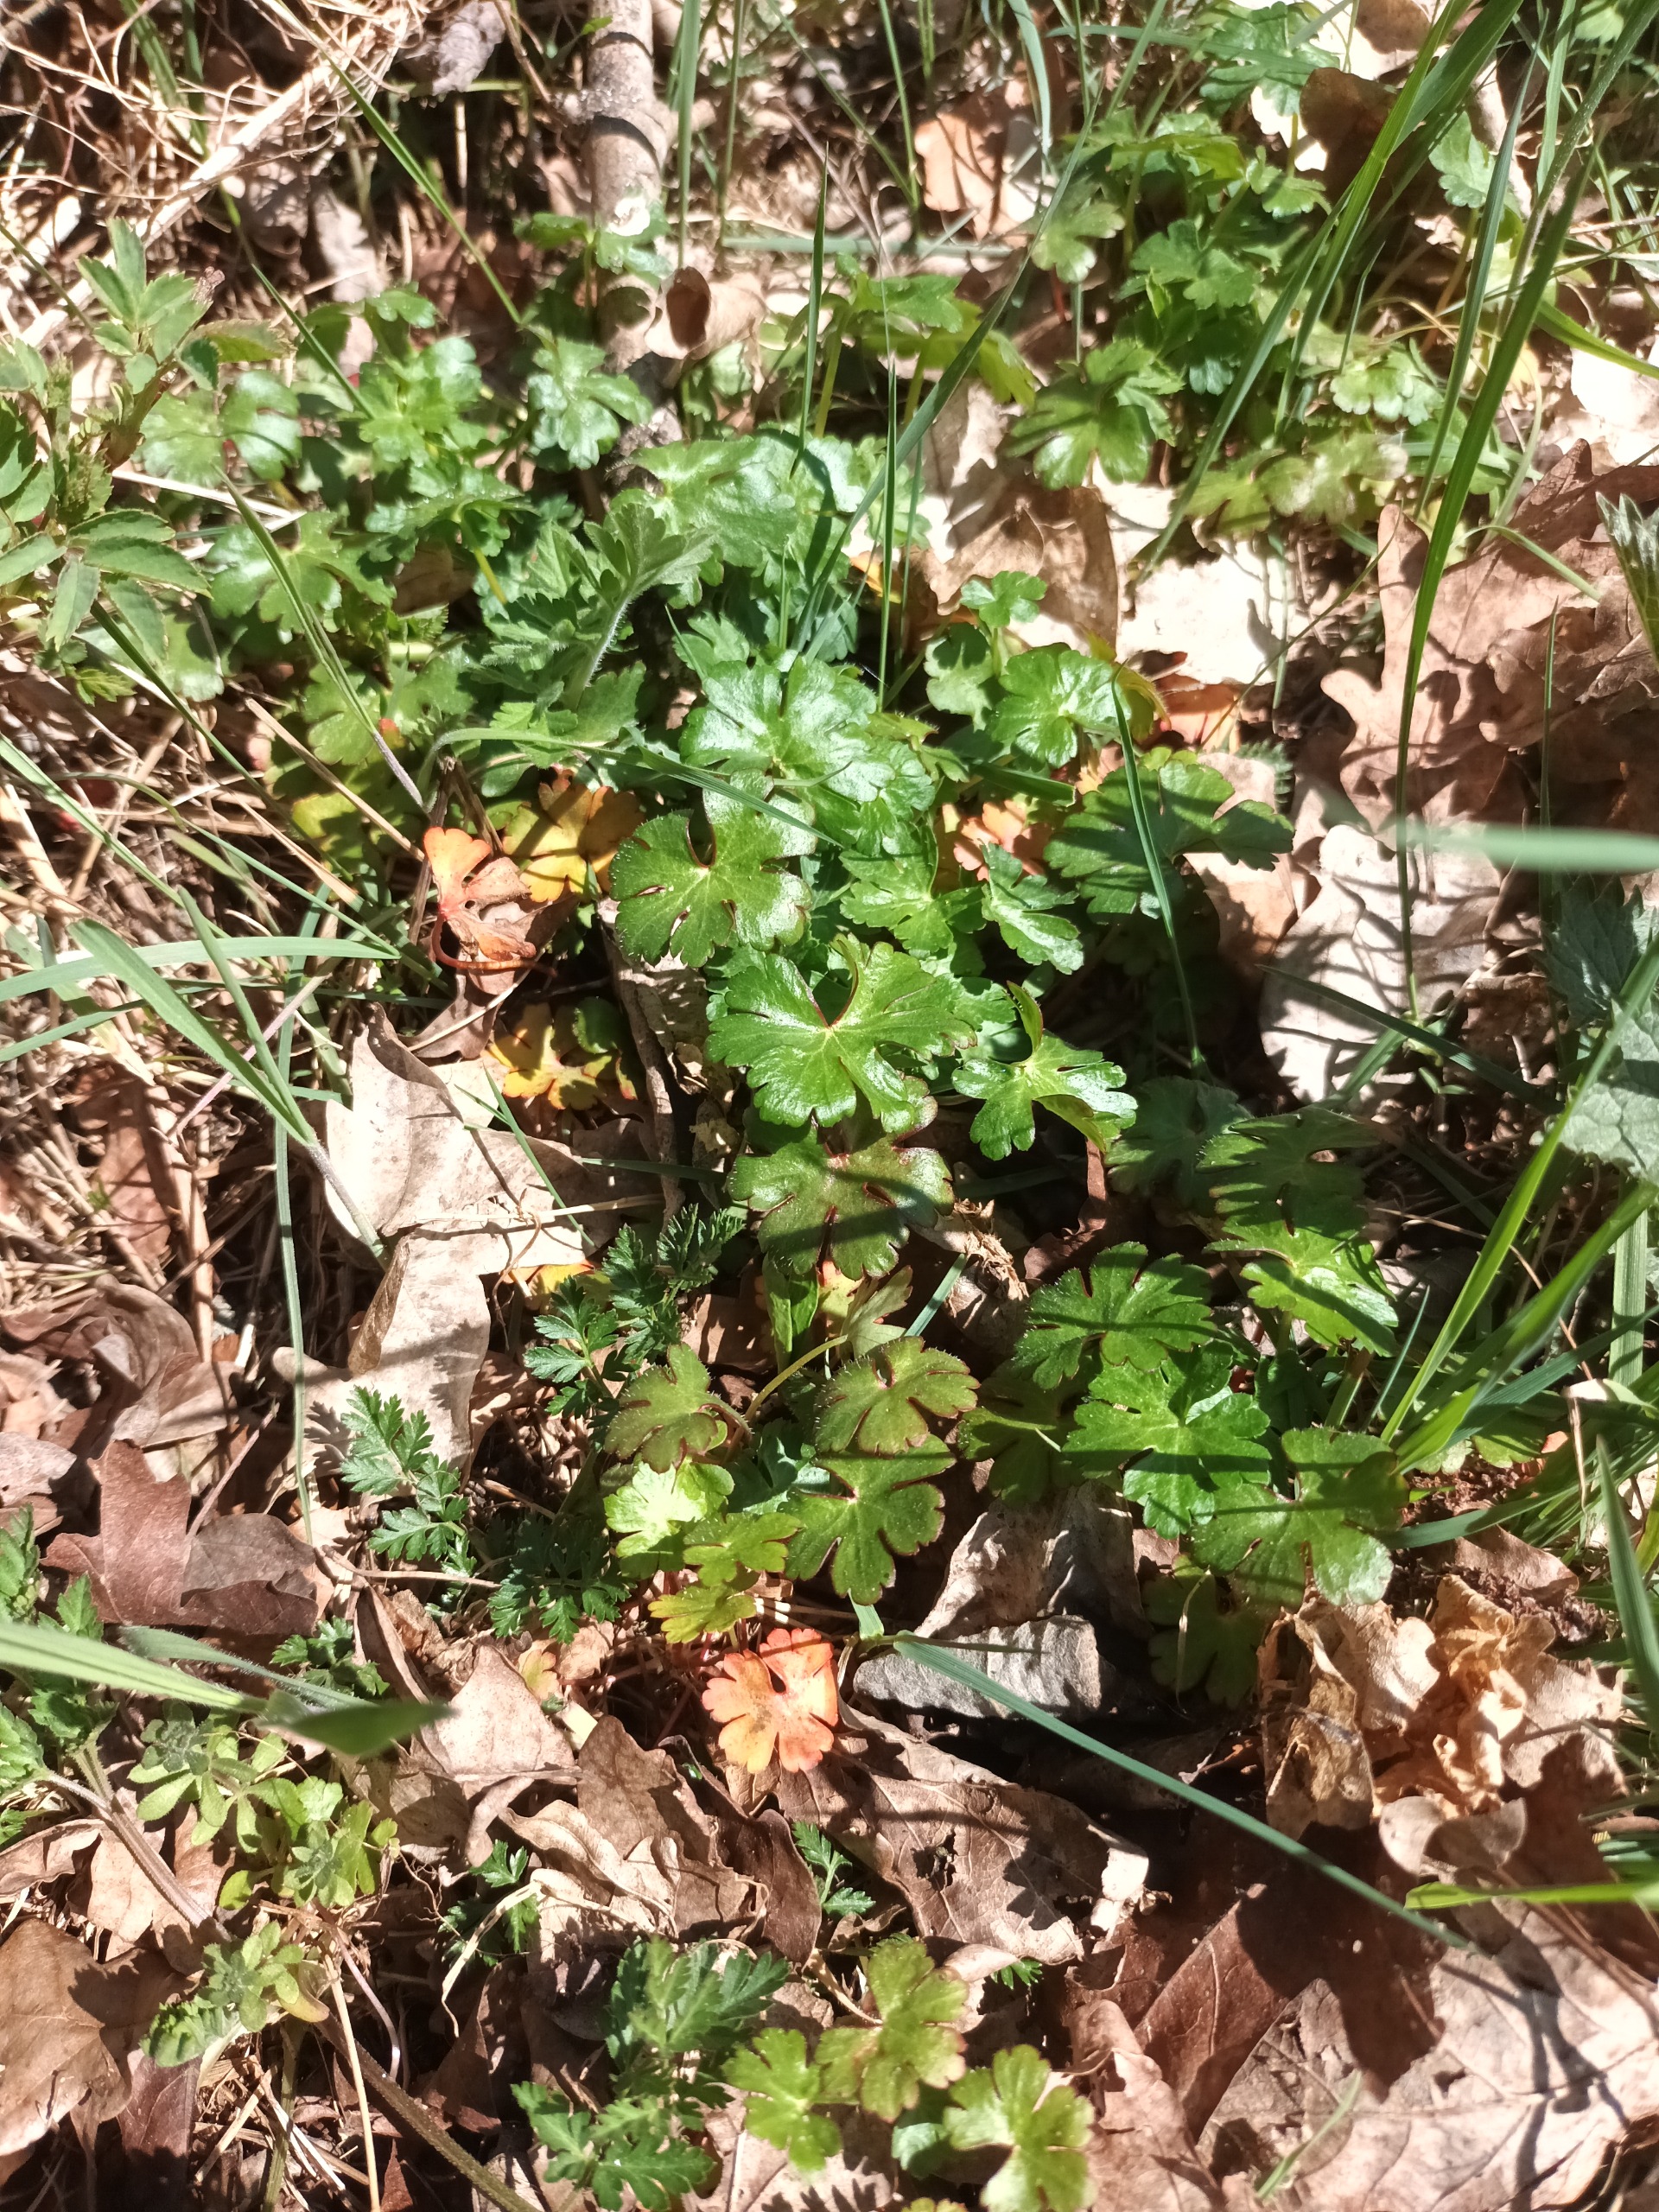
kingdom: Plantae
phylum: Tracheophyta
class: Magnoliopsida
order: Geraniales
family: Geraniaceae
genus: Geranium
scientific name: Geranium lucidum
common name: Skinnende storkenæb
